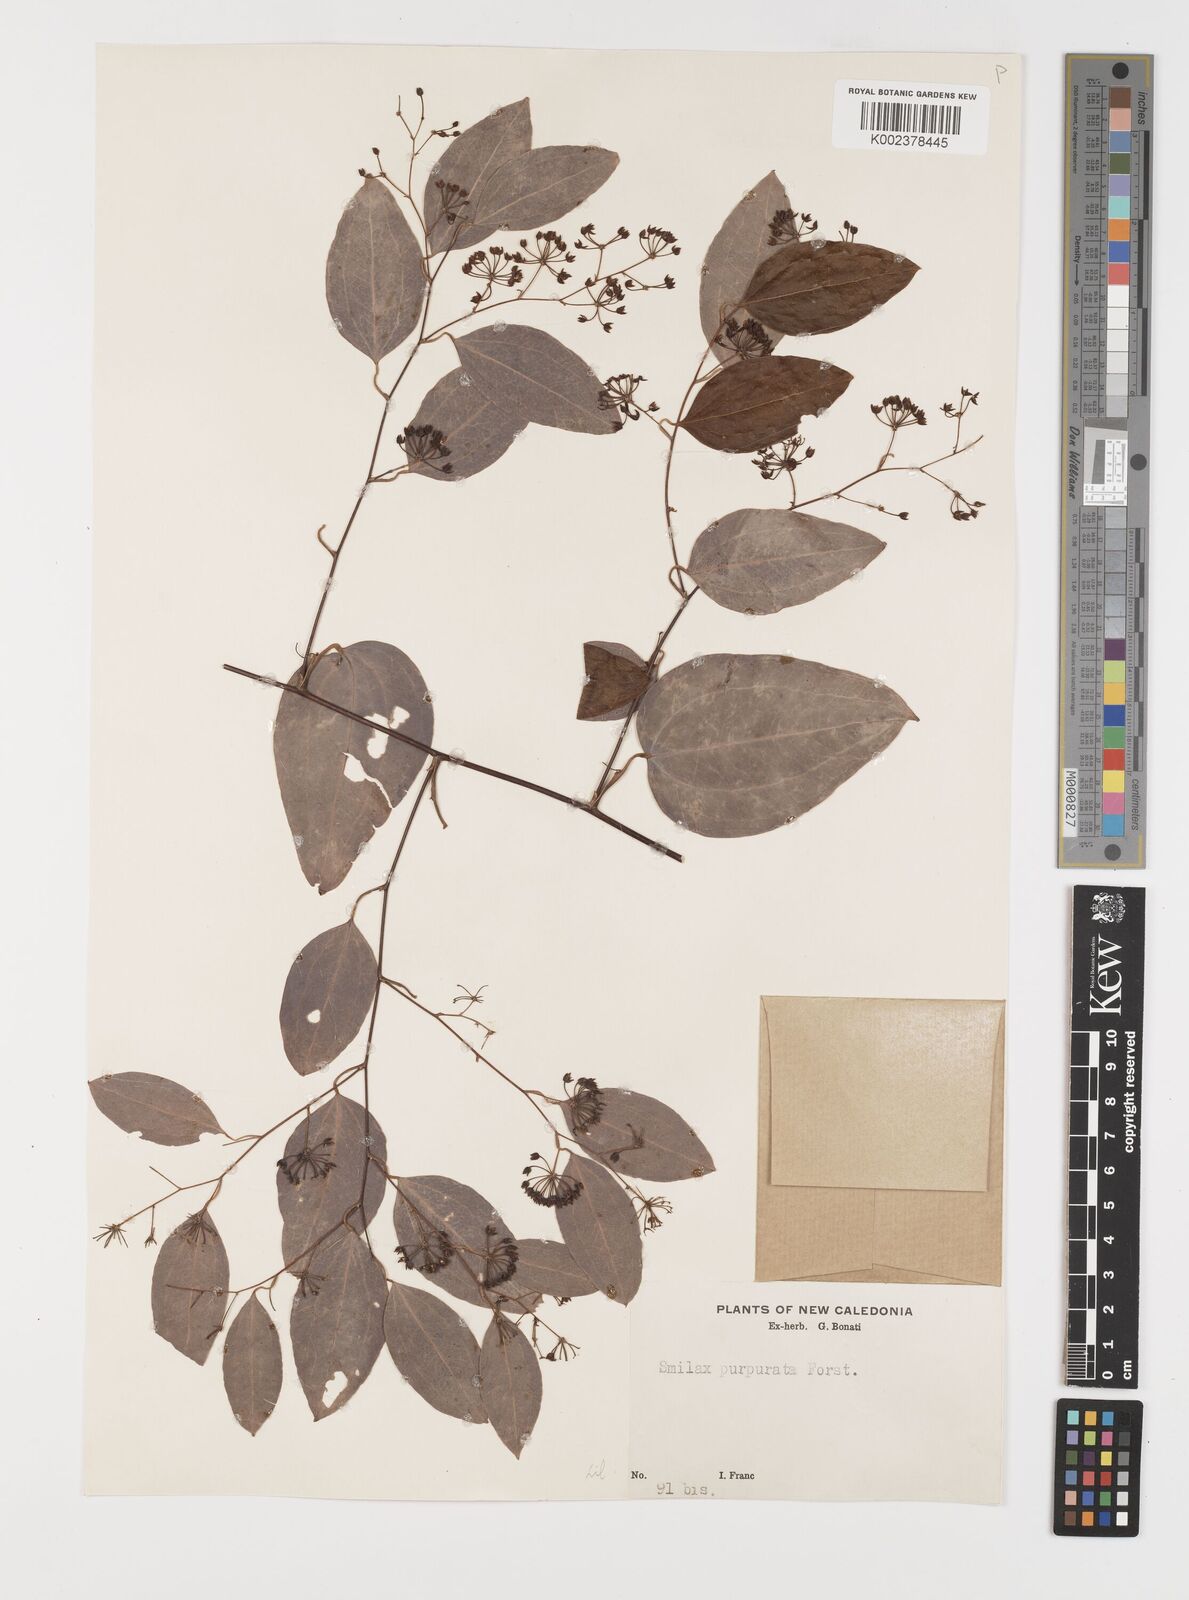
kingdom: Plantae
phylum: Tracheophyta
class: Liliopsida
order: Liliales
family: Smilacaceae
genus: Smilax
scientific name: Smilax purpurata
